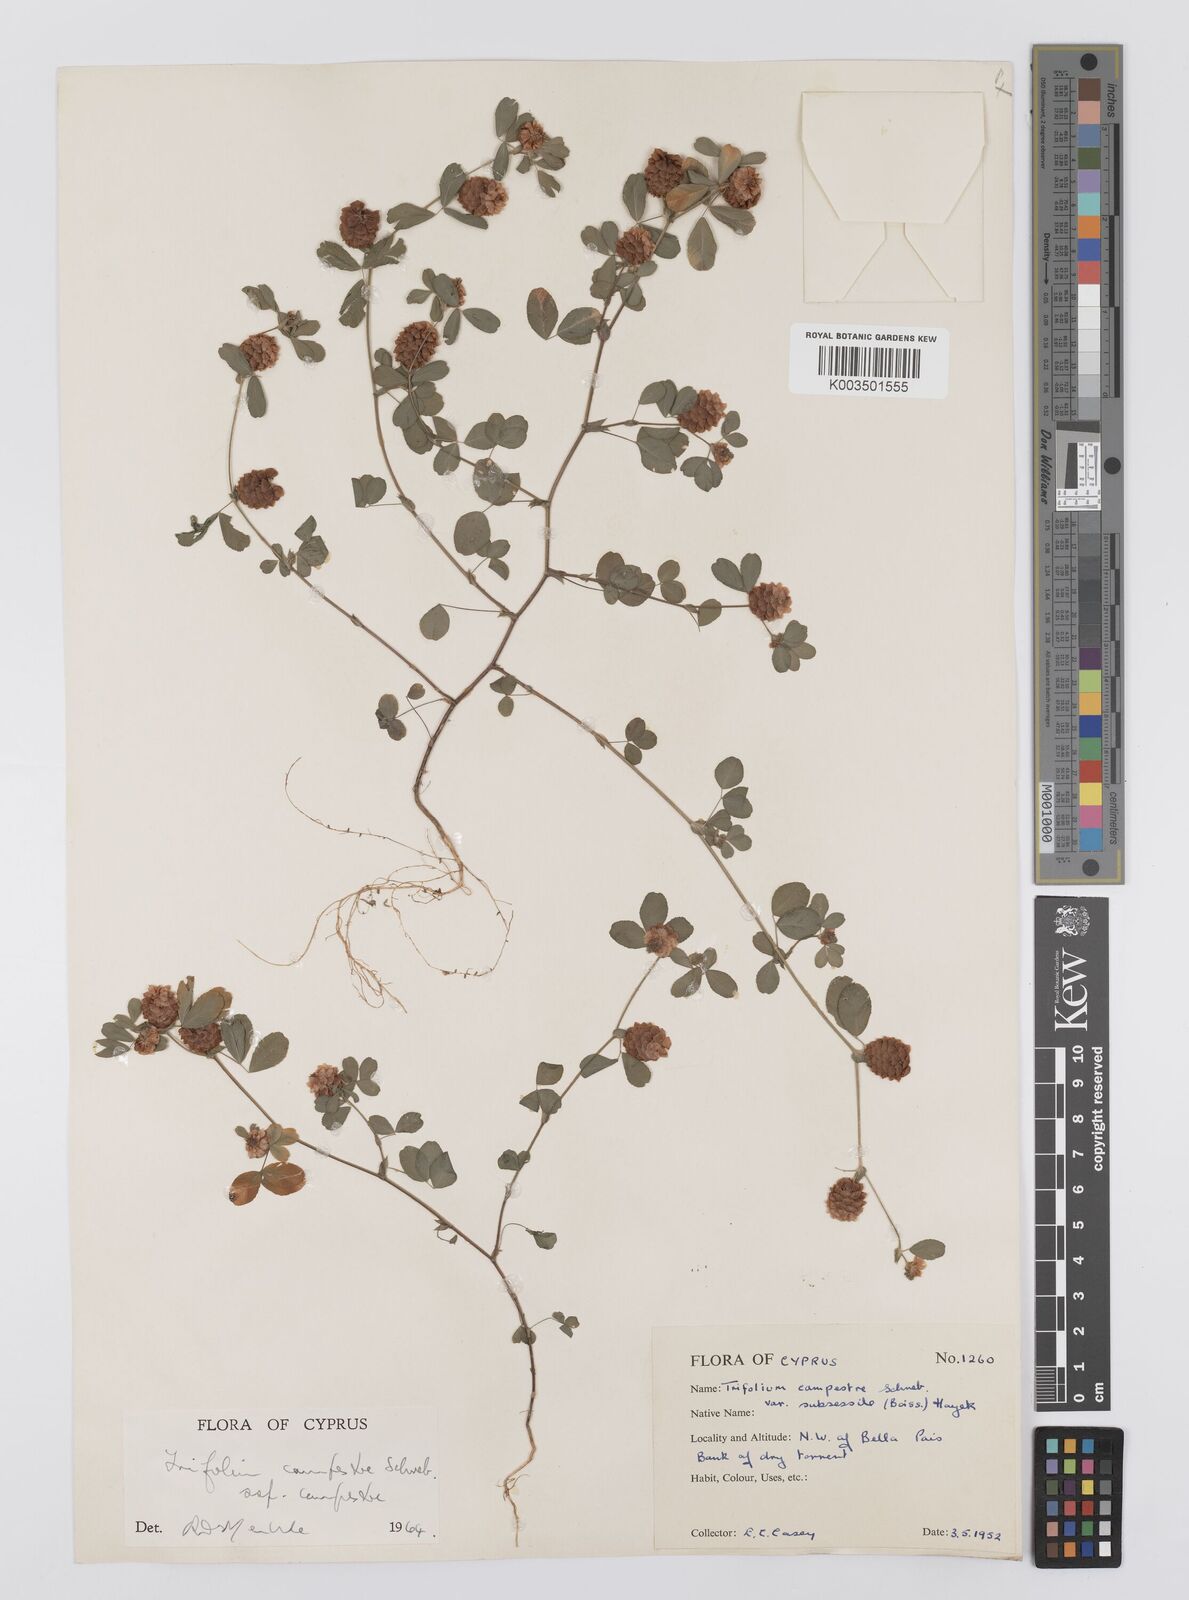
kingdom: Plantae
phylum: Tracheophyta
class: Magnoliopsida
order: Fabales
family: Fabaceae
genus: Trifolium
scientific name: Trifolium campestre
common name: Field clover
